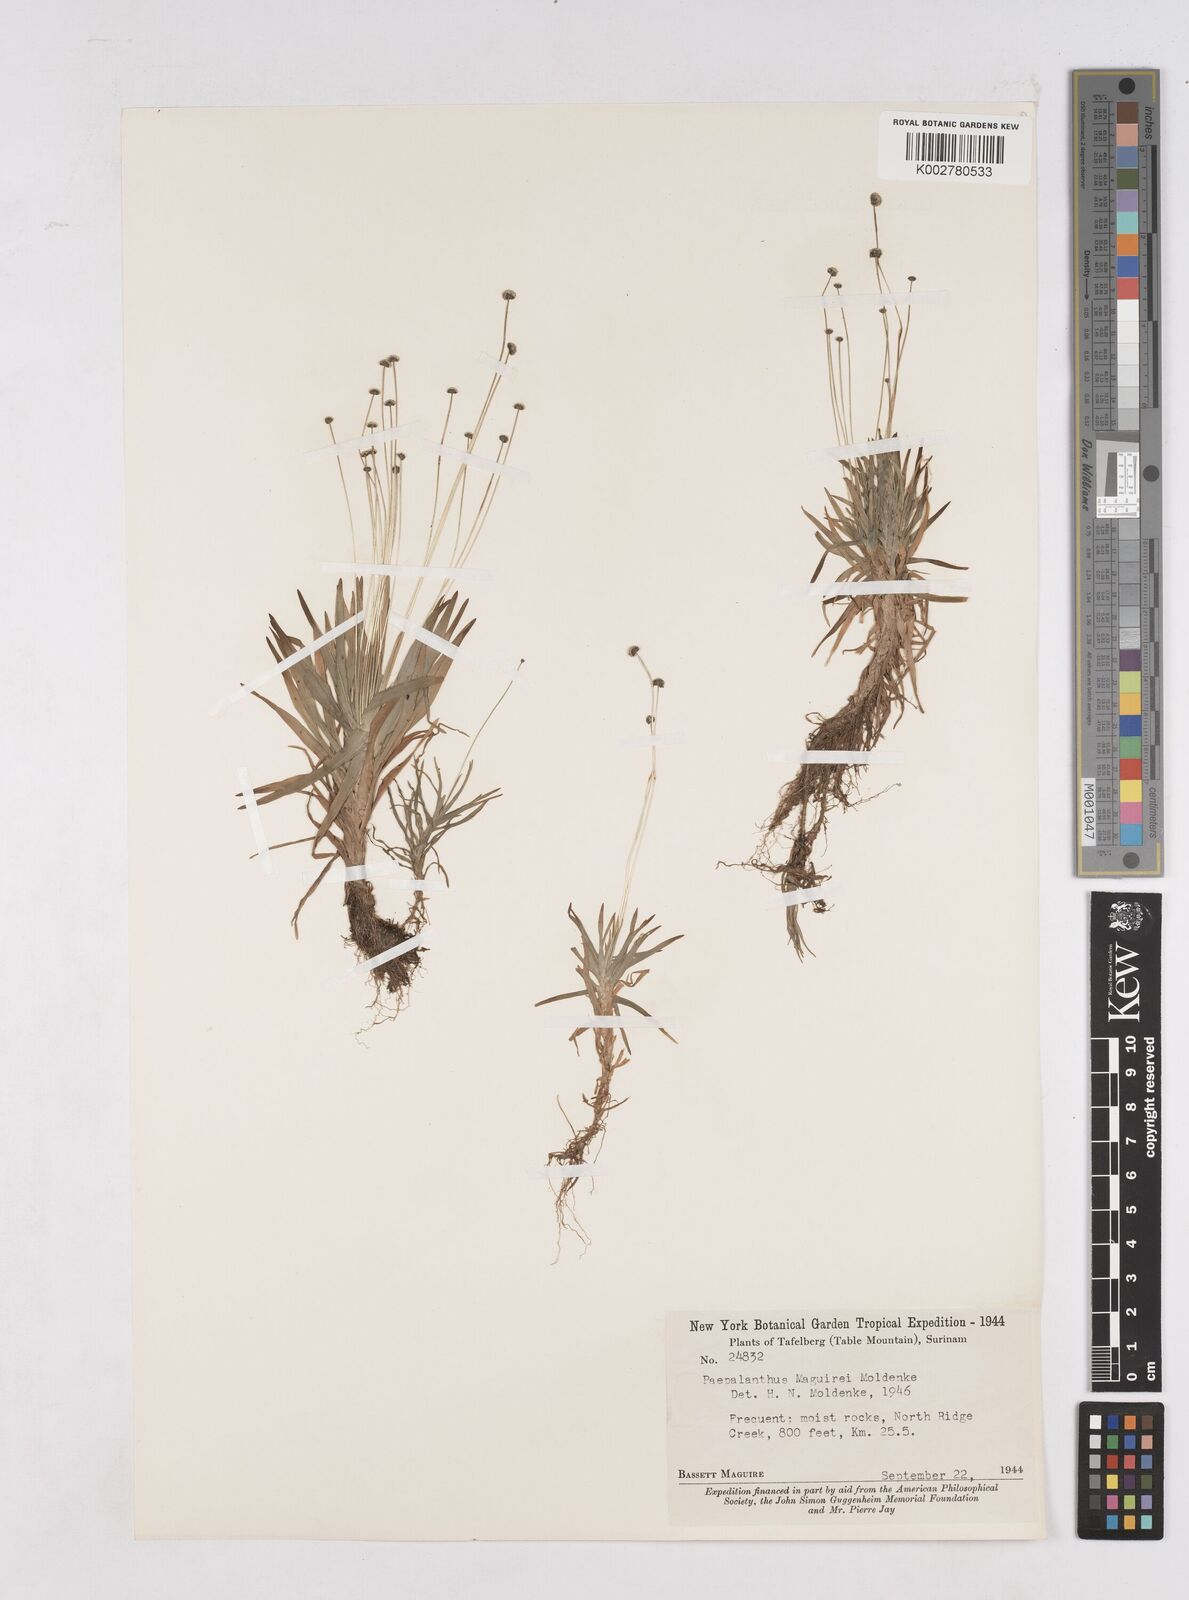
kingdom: Plantae
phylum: Tracheophyta
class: Liliopsida
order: Poales
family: Eriocaulaceae
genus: Paepalanthus
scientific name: Paepalanthus tortilis
